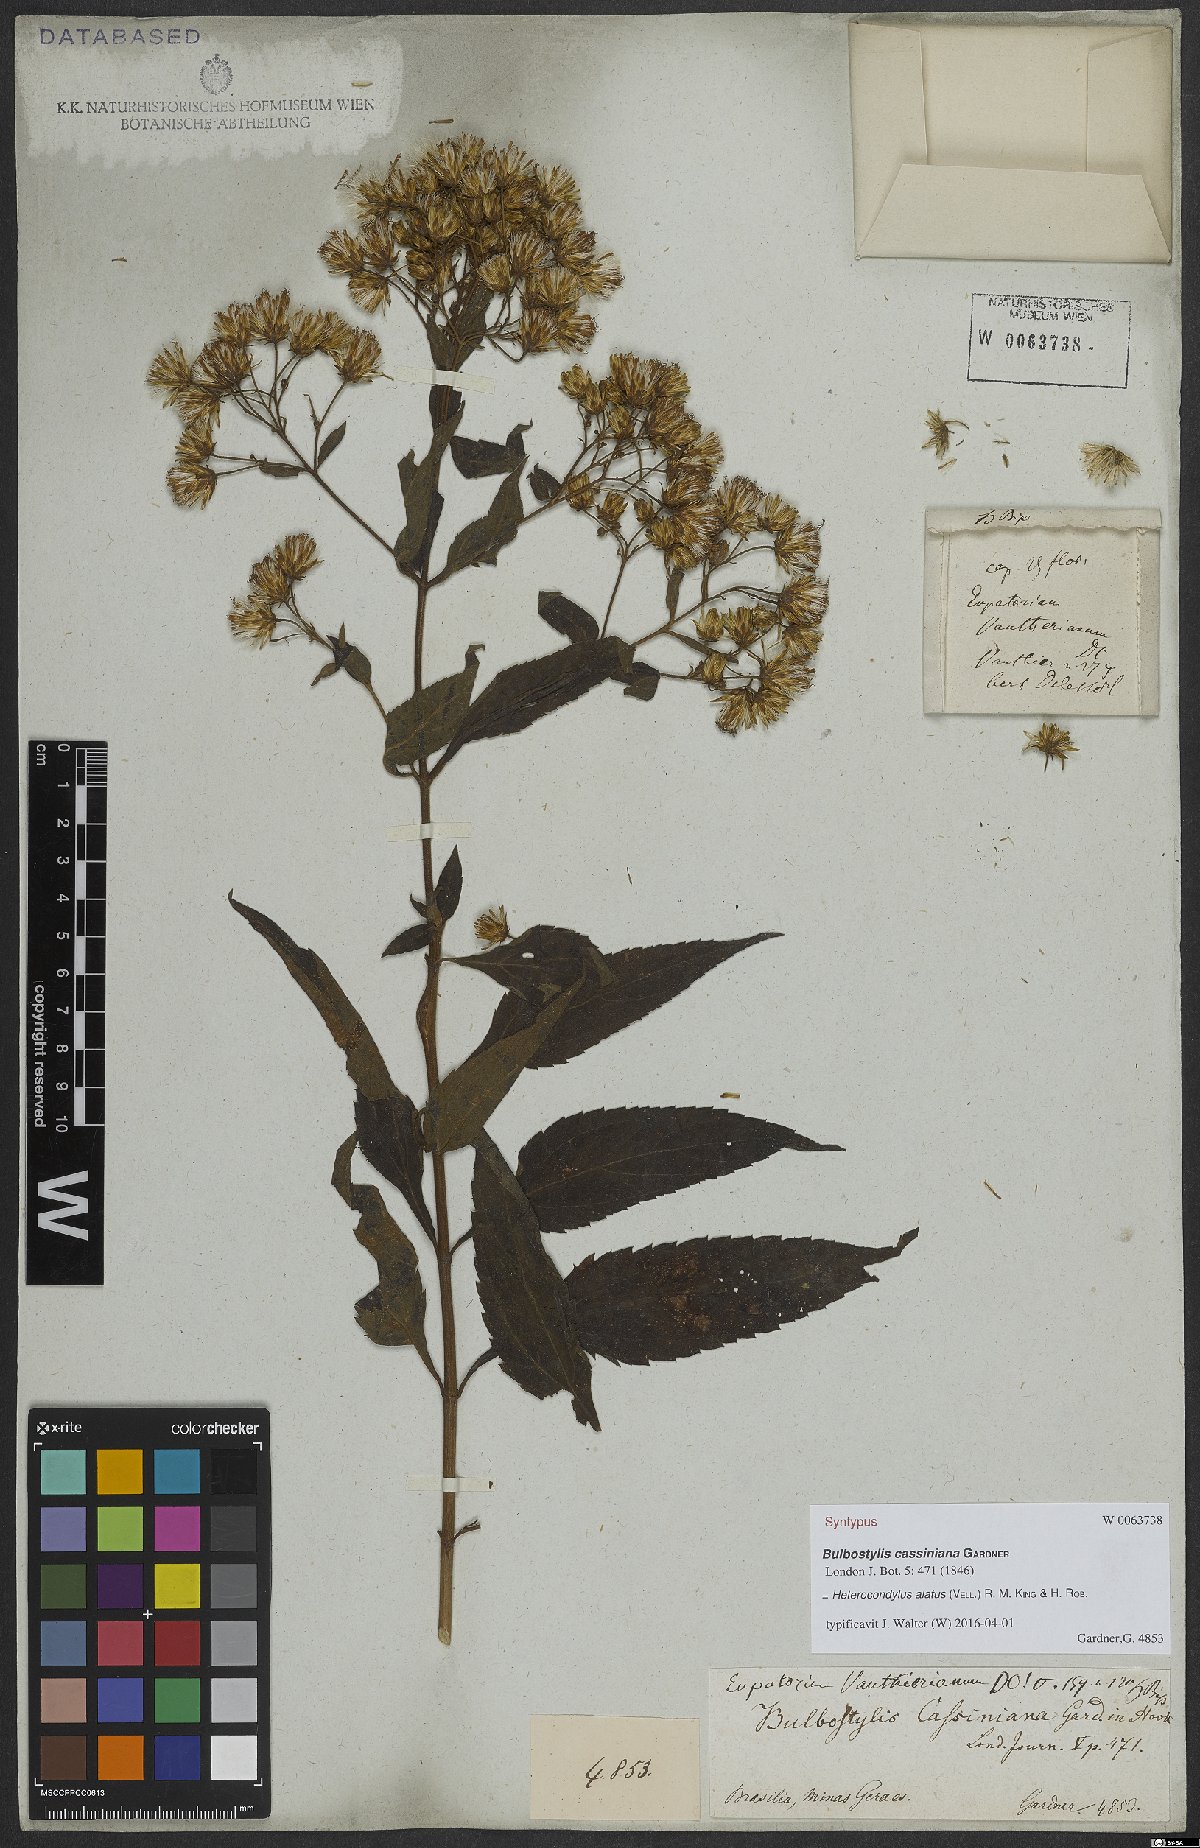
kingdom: Plantae
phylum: Tracheophyta
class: Magnoliopsida
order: Asterales
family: Asteraceae
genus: Heterocondylus
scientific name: Heterocondylus alatus
